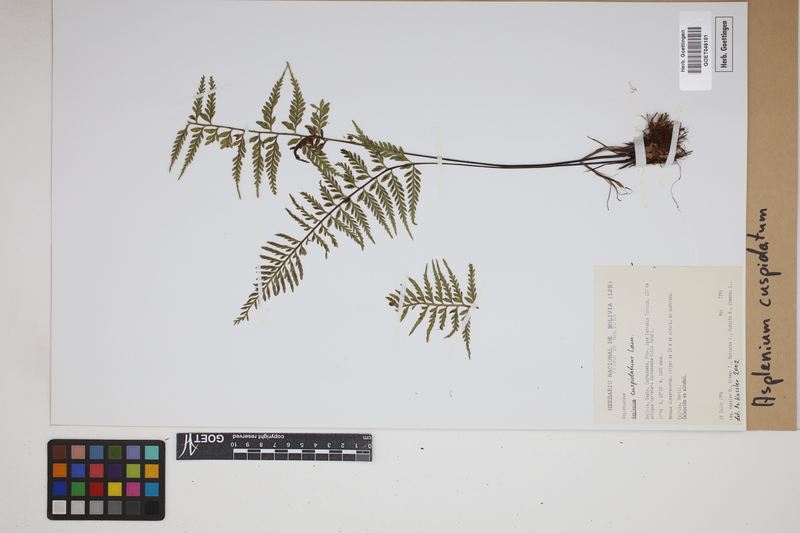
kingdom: Plantae
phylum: Tracheophyta
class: Polypodiopsida
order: Polypodiales
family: Aspleniaceae
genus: Asplenium
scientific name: Asplenium cuspidatum
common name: Eared spleenwort
